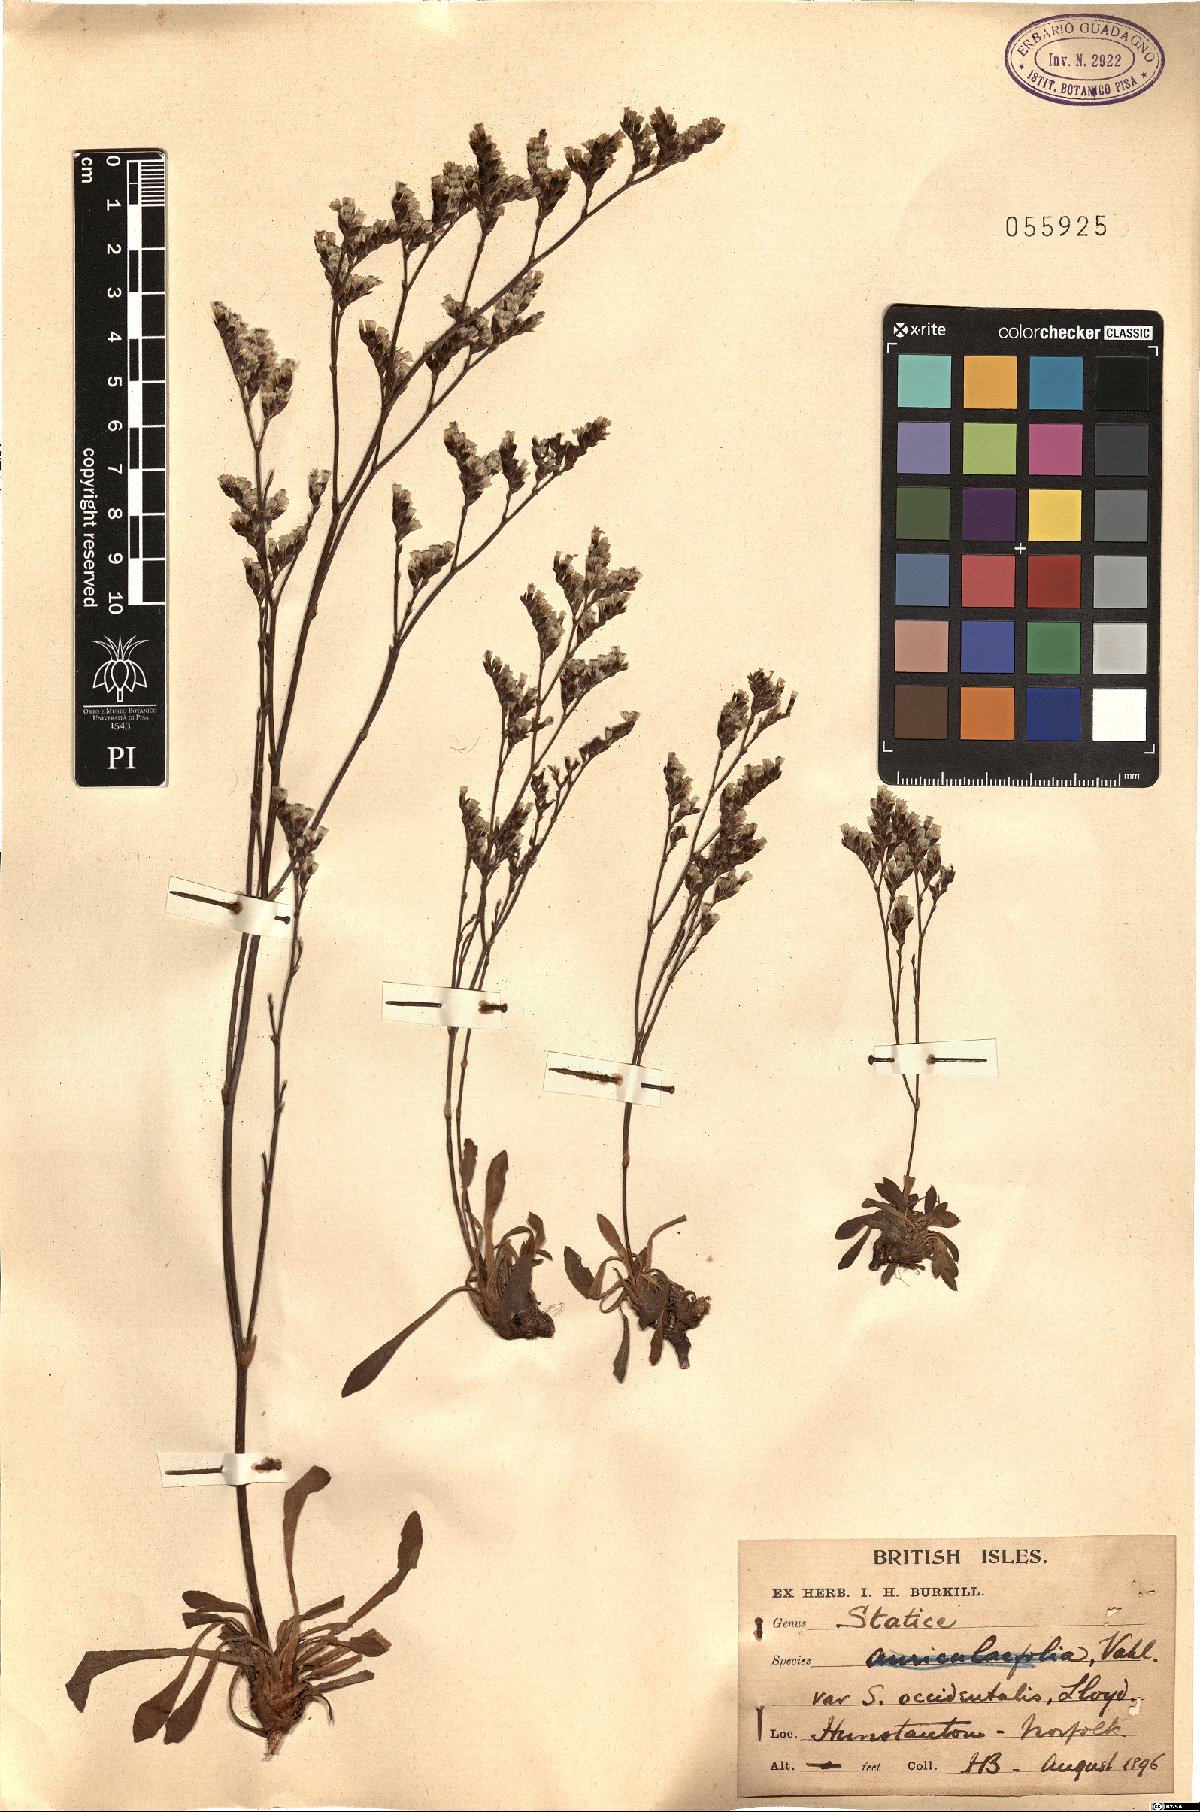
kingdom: Plantae
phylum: Tracheophyta
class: Magnoliopsida
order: Caryophyllales
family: Plumbaginaceae
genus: Limonium
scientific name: Limonium occidentale
